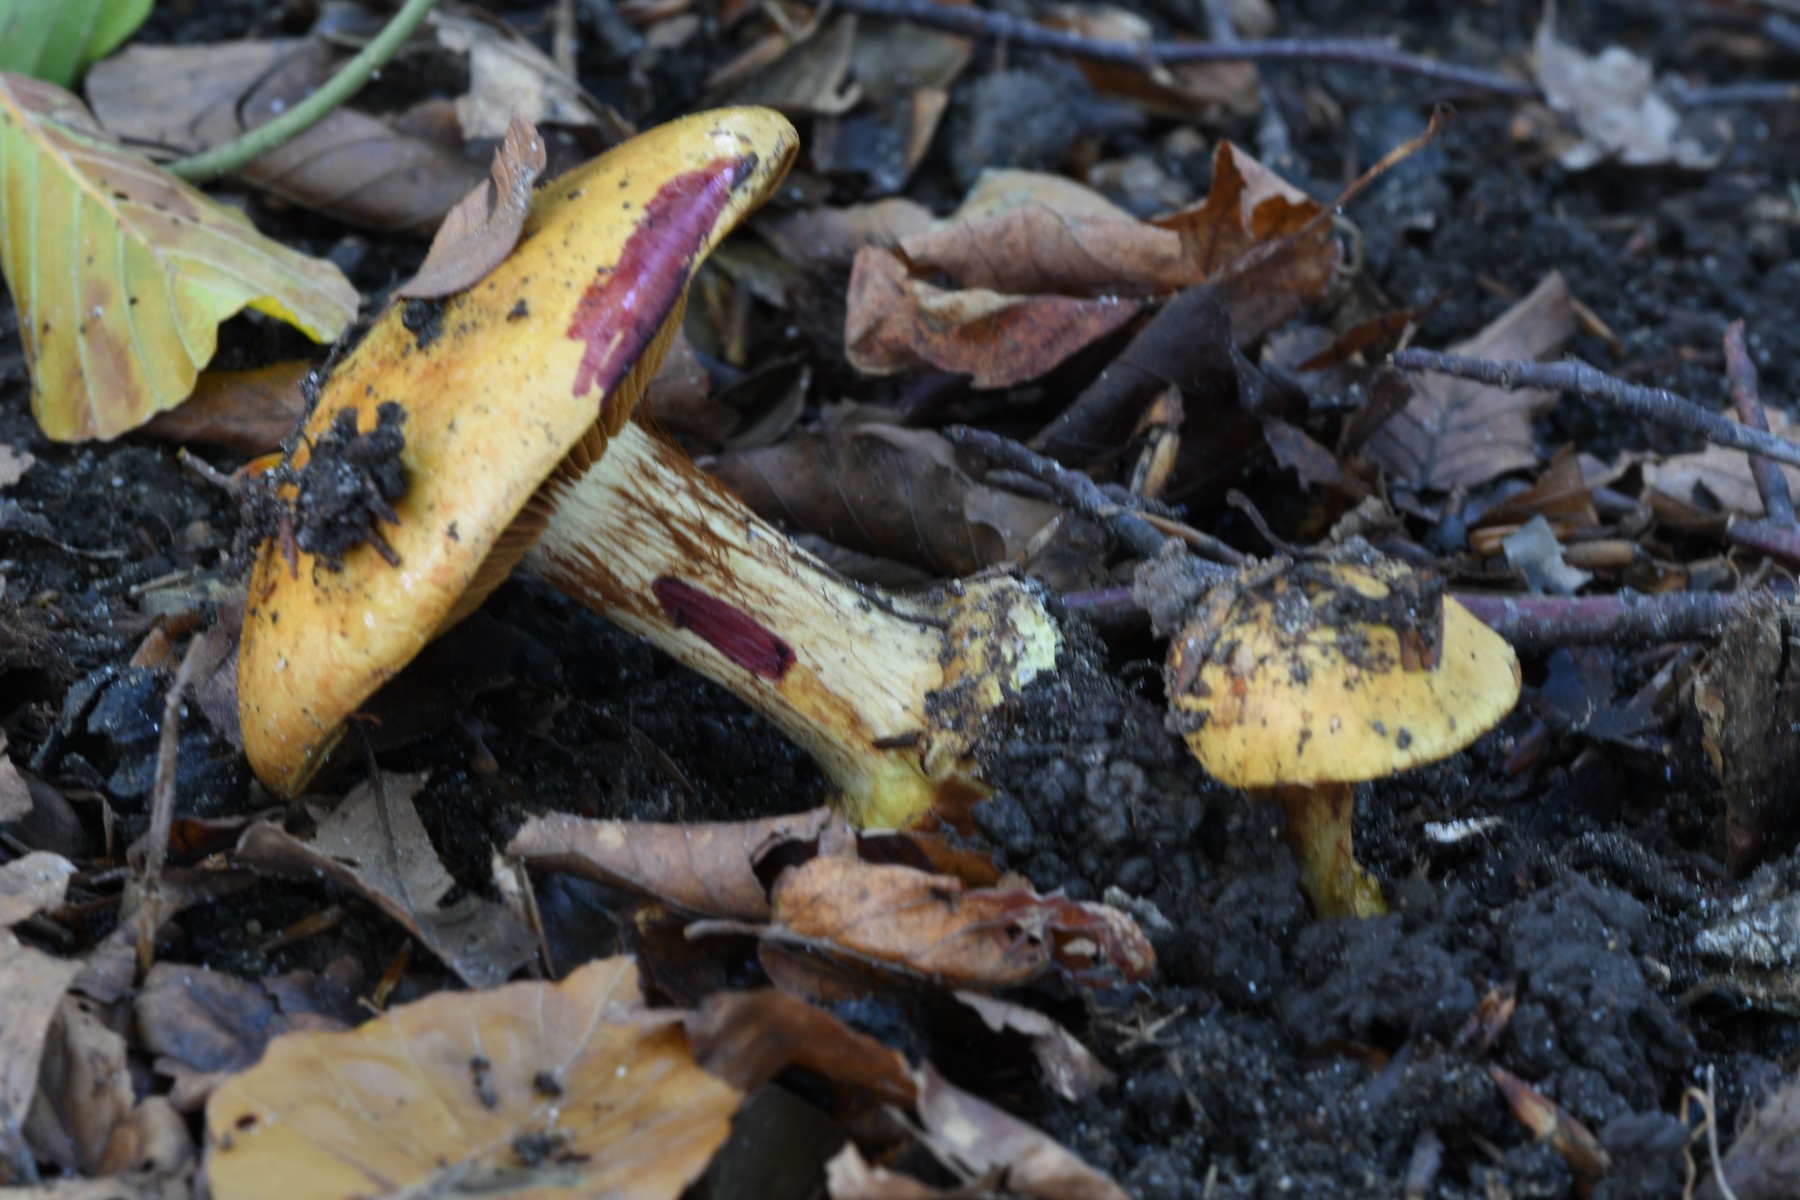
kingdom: Fungi
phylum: Basidiomycota
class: Agaricomycetes
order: Agaricales
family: Cortinariaceae
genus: Calonarius
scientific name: Calonarius alcalinophilus
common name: gyldenbrun slørhat
